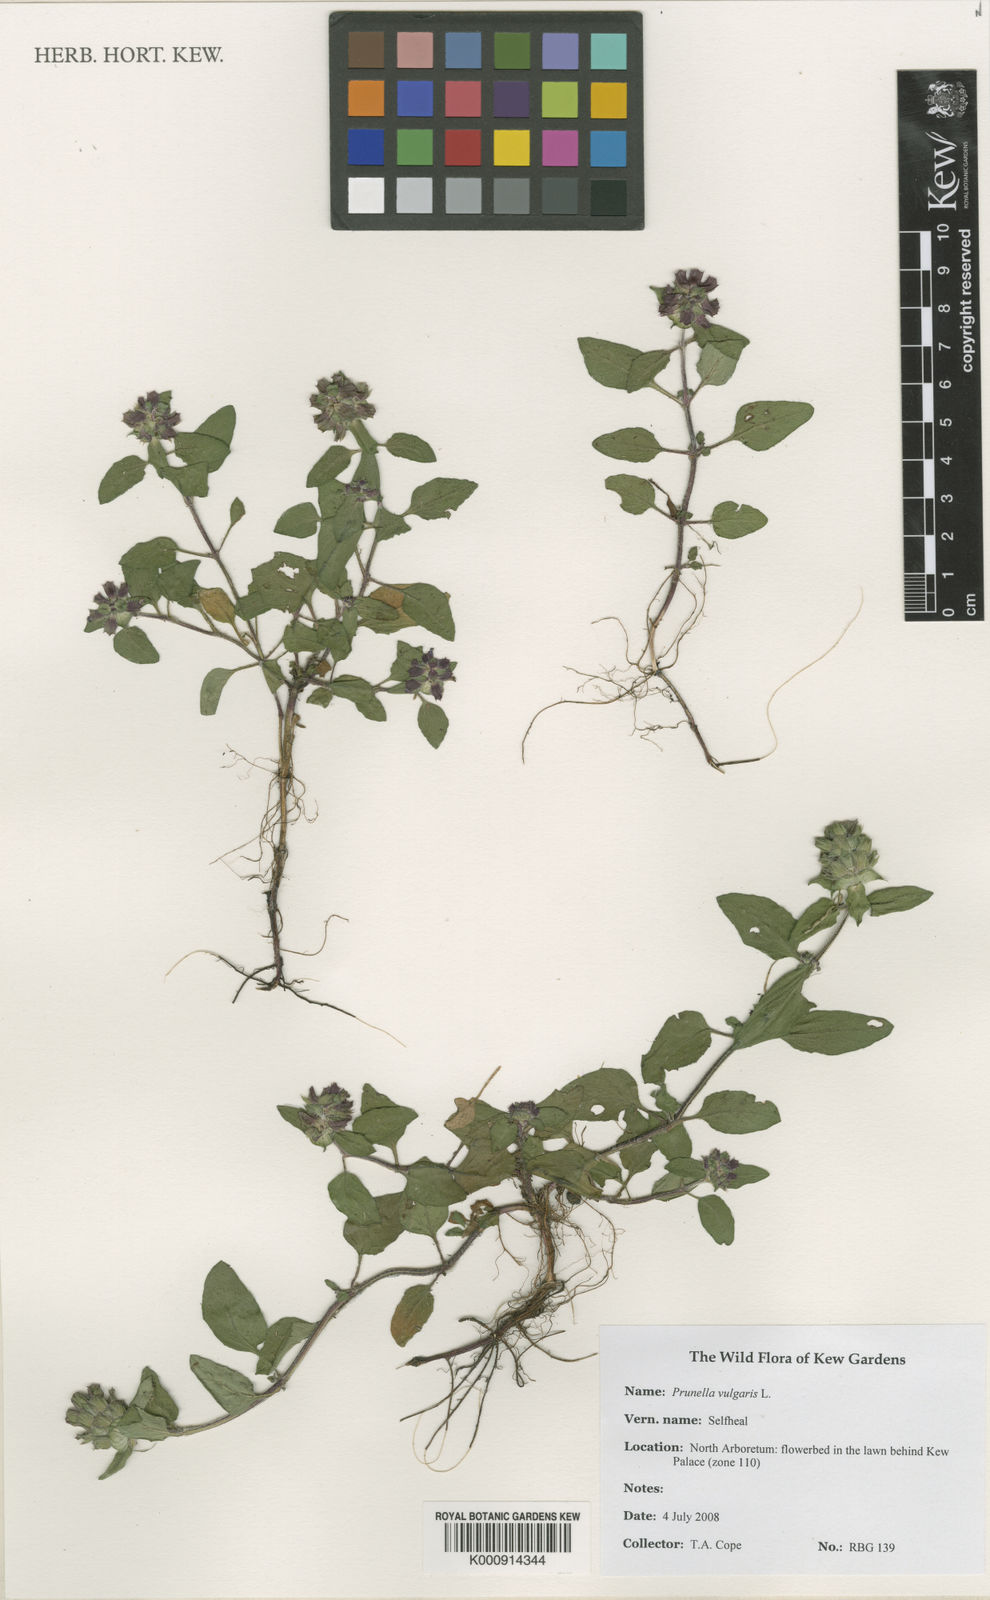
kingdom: Plantae
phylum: Tracheophyta
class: Magnoliopsida
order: Lamiales
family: Lamiaceae
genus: Prunella
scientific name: Prunella vulgaris
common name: Heal-all
